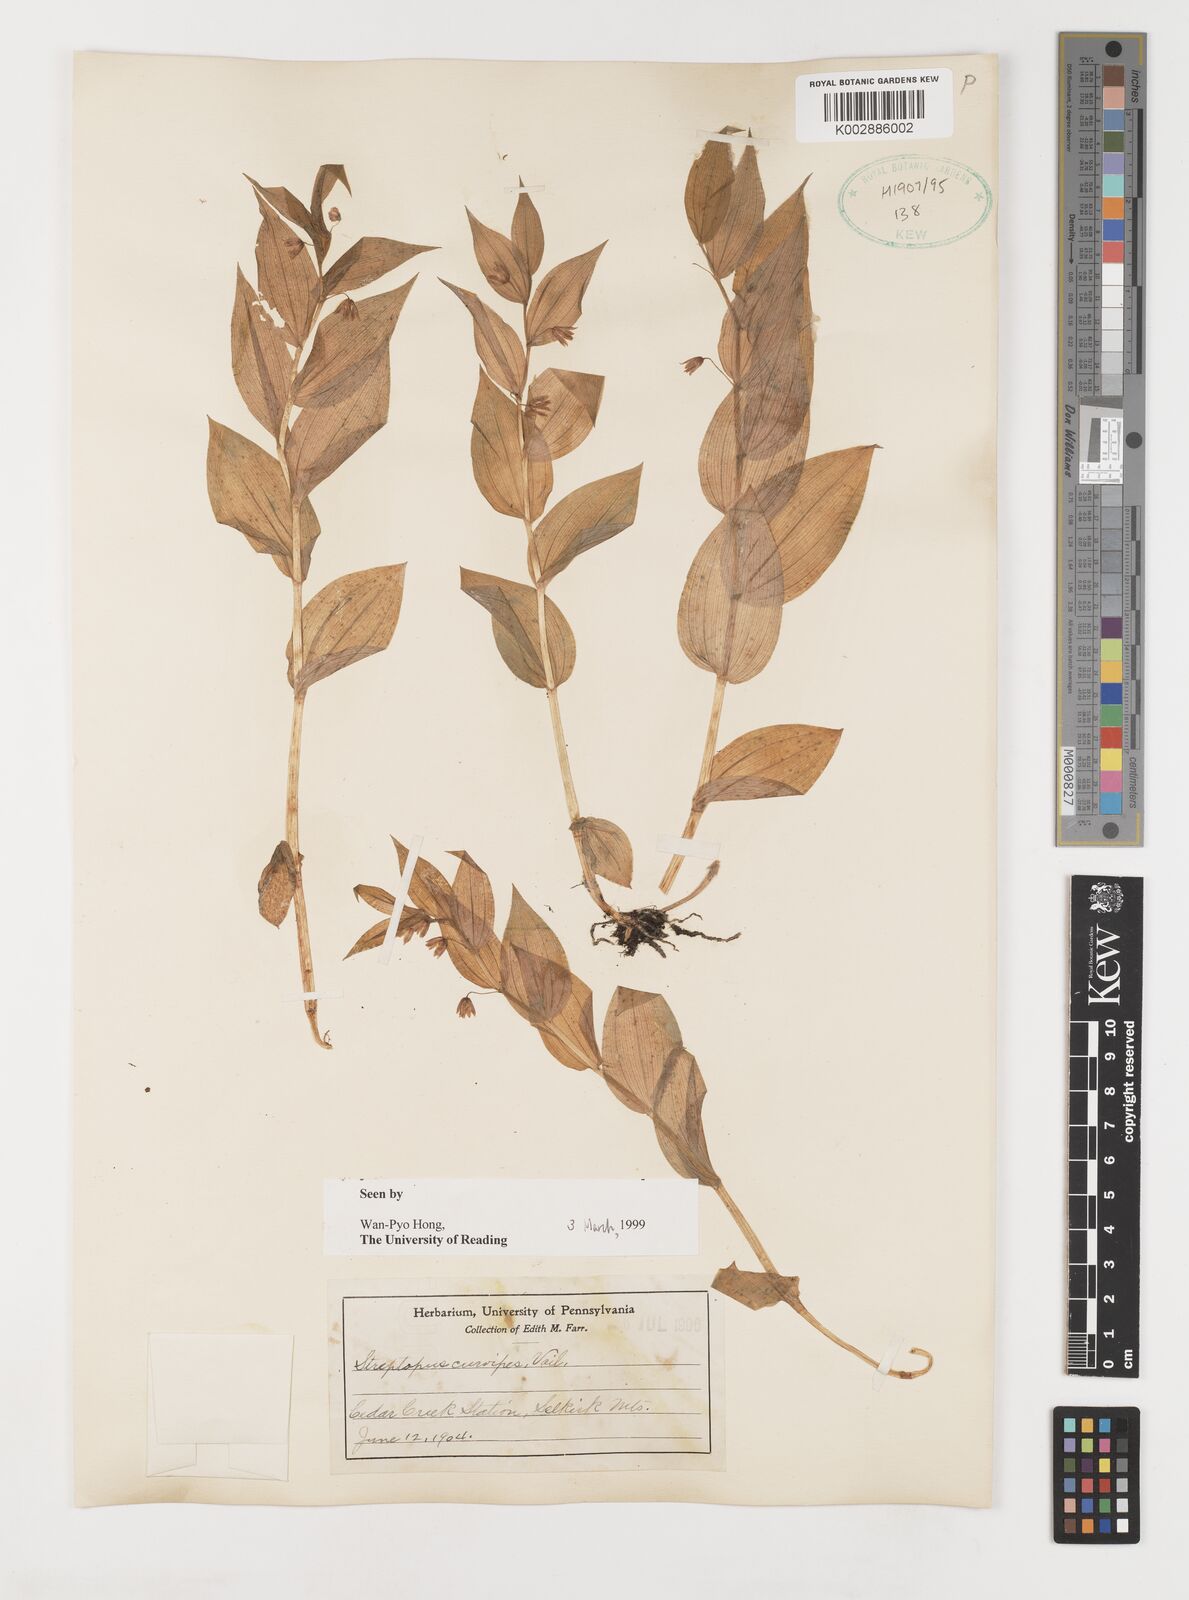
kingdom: Plantae
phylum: Tracheophyta
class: Liliopsida
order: Liliales
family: Liliaceae
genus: Streptopus
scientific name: Streptopus lanceolatus
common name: Rose mandarin
